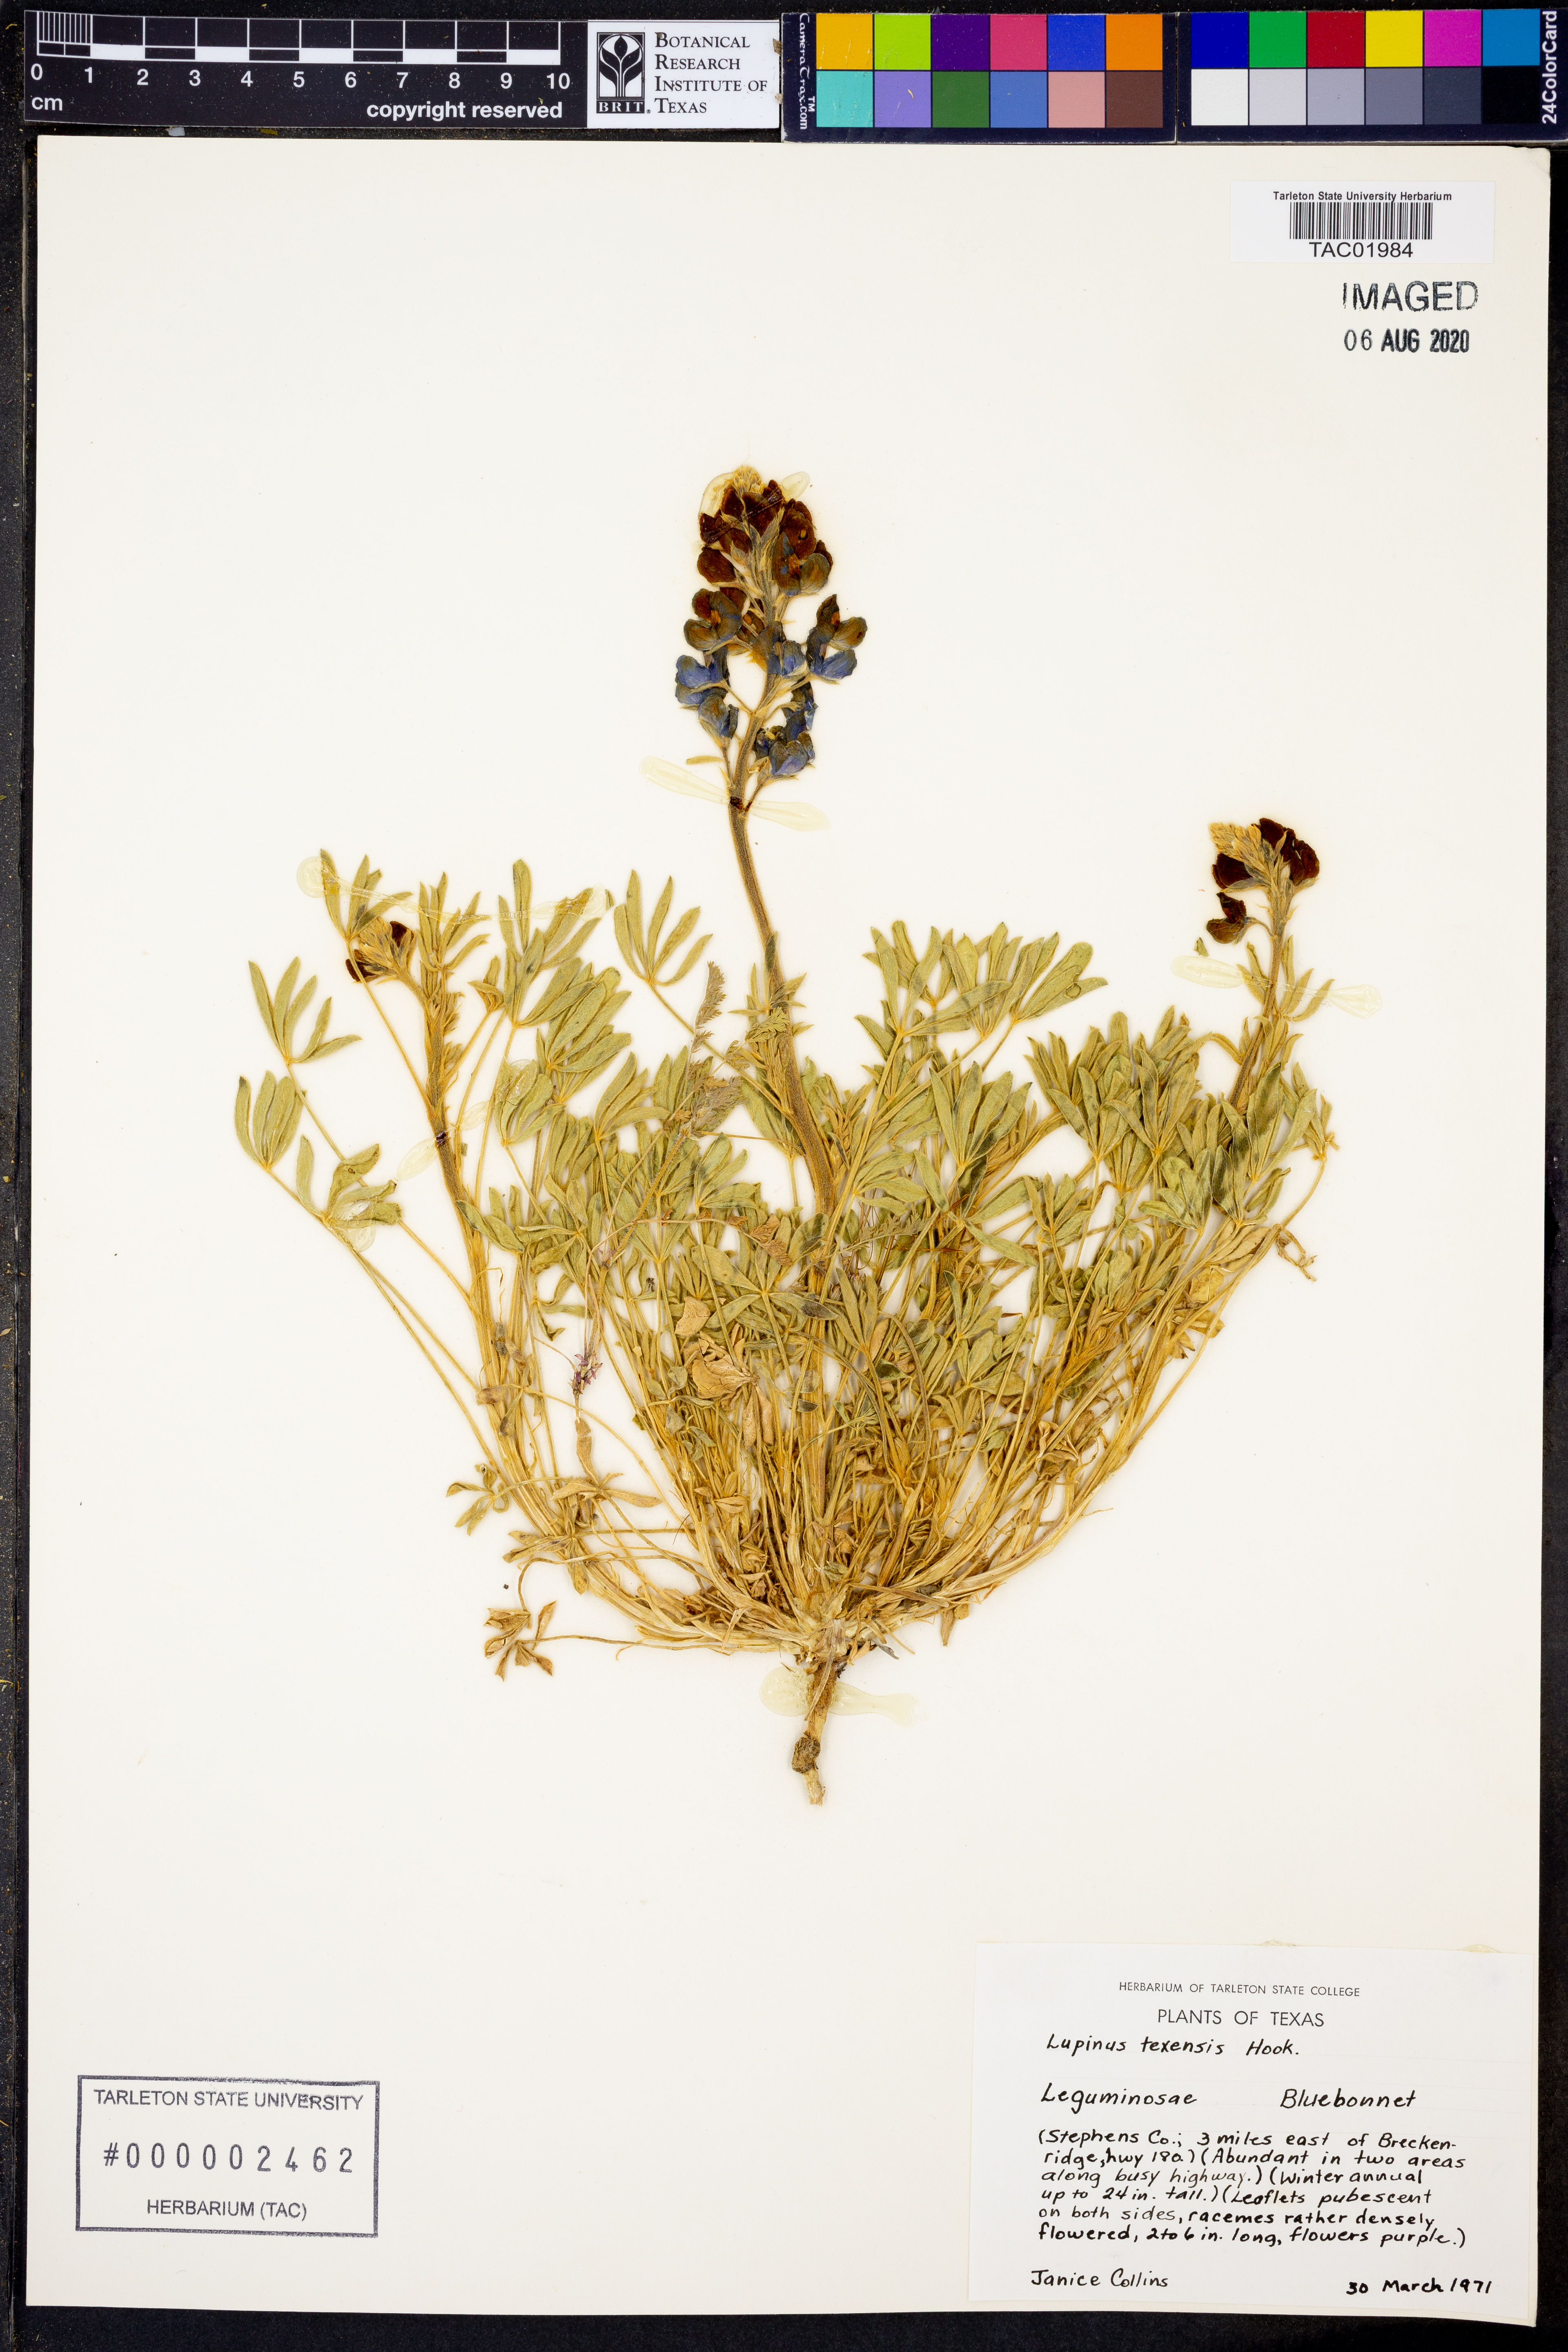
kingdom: Plantae
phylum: Tracheophyta
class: Magnoliopsida
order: Fabales
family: Fabaceae
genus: Lupinus
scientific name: Lupinus texensis
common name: Texas bluebonnet
